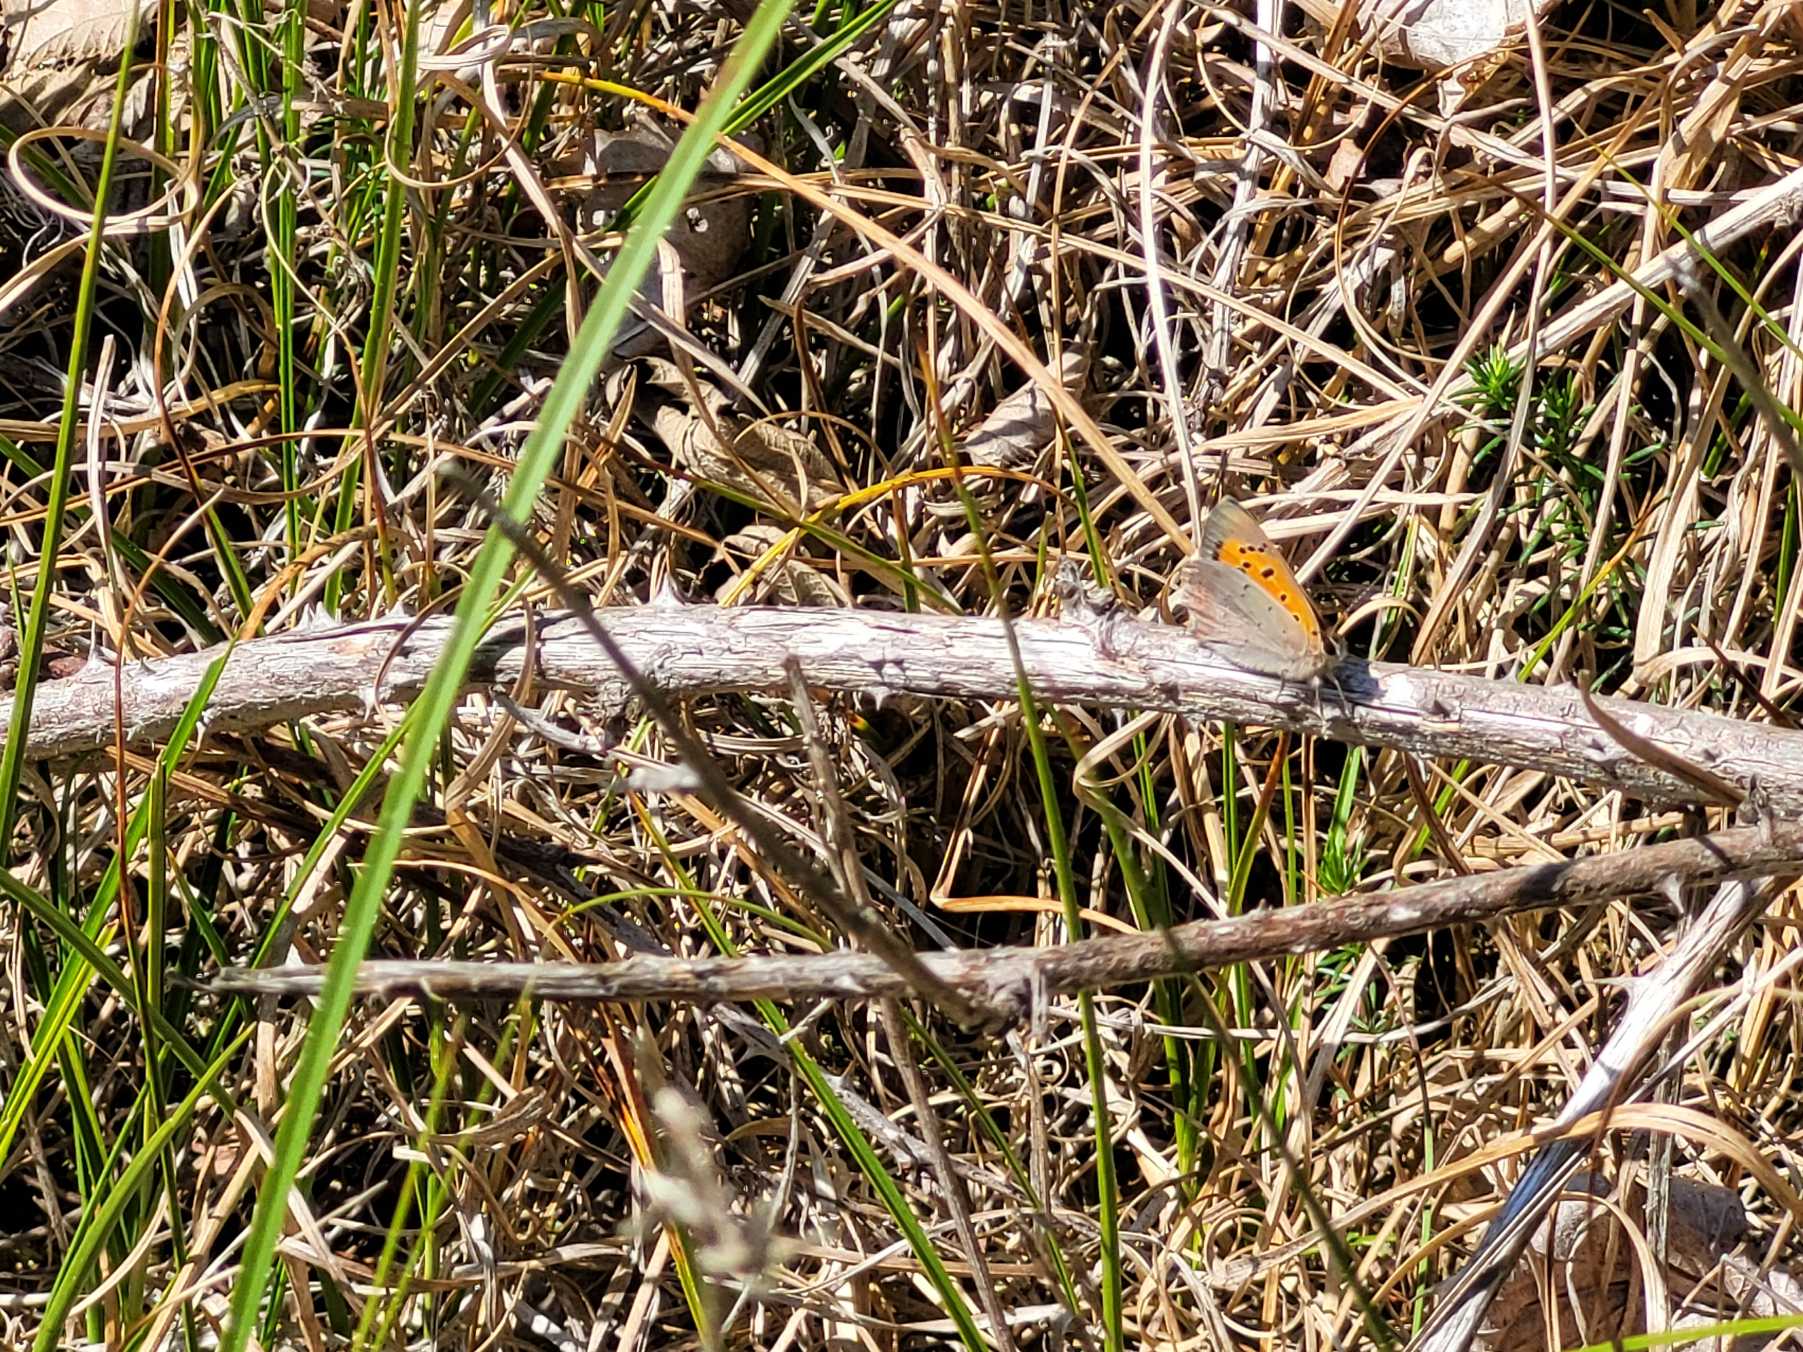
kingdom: Animalia
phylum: Arthropoda
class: Insecta
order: Lepidoptera
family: Lycaenidae
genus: Lycaena
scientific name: Lycaena phlaeas
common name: Lille ildfugl
